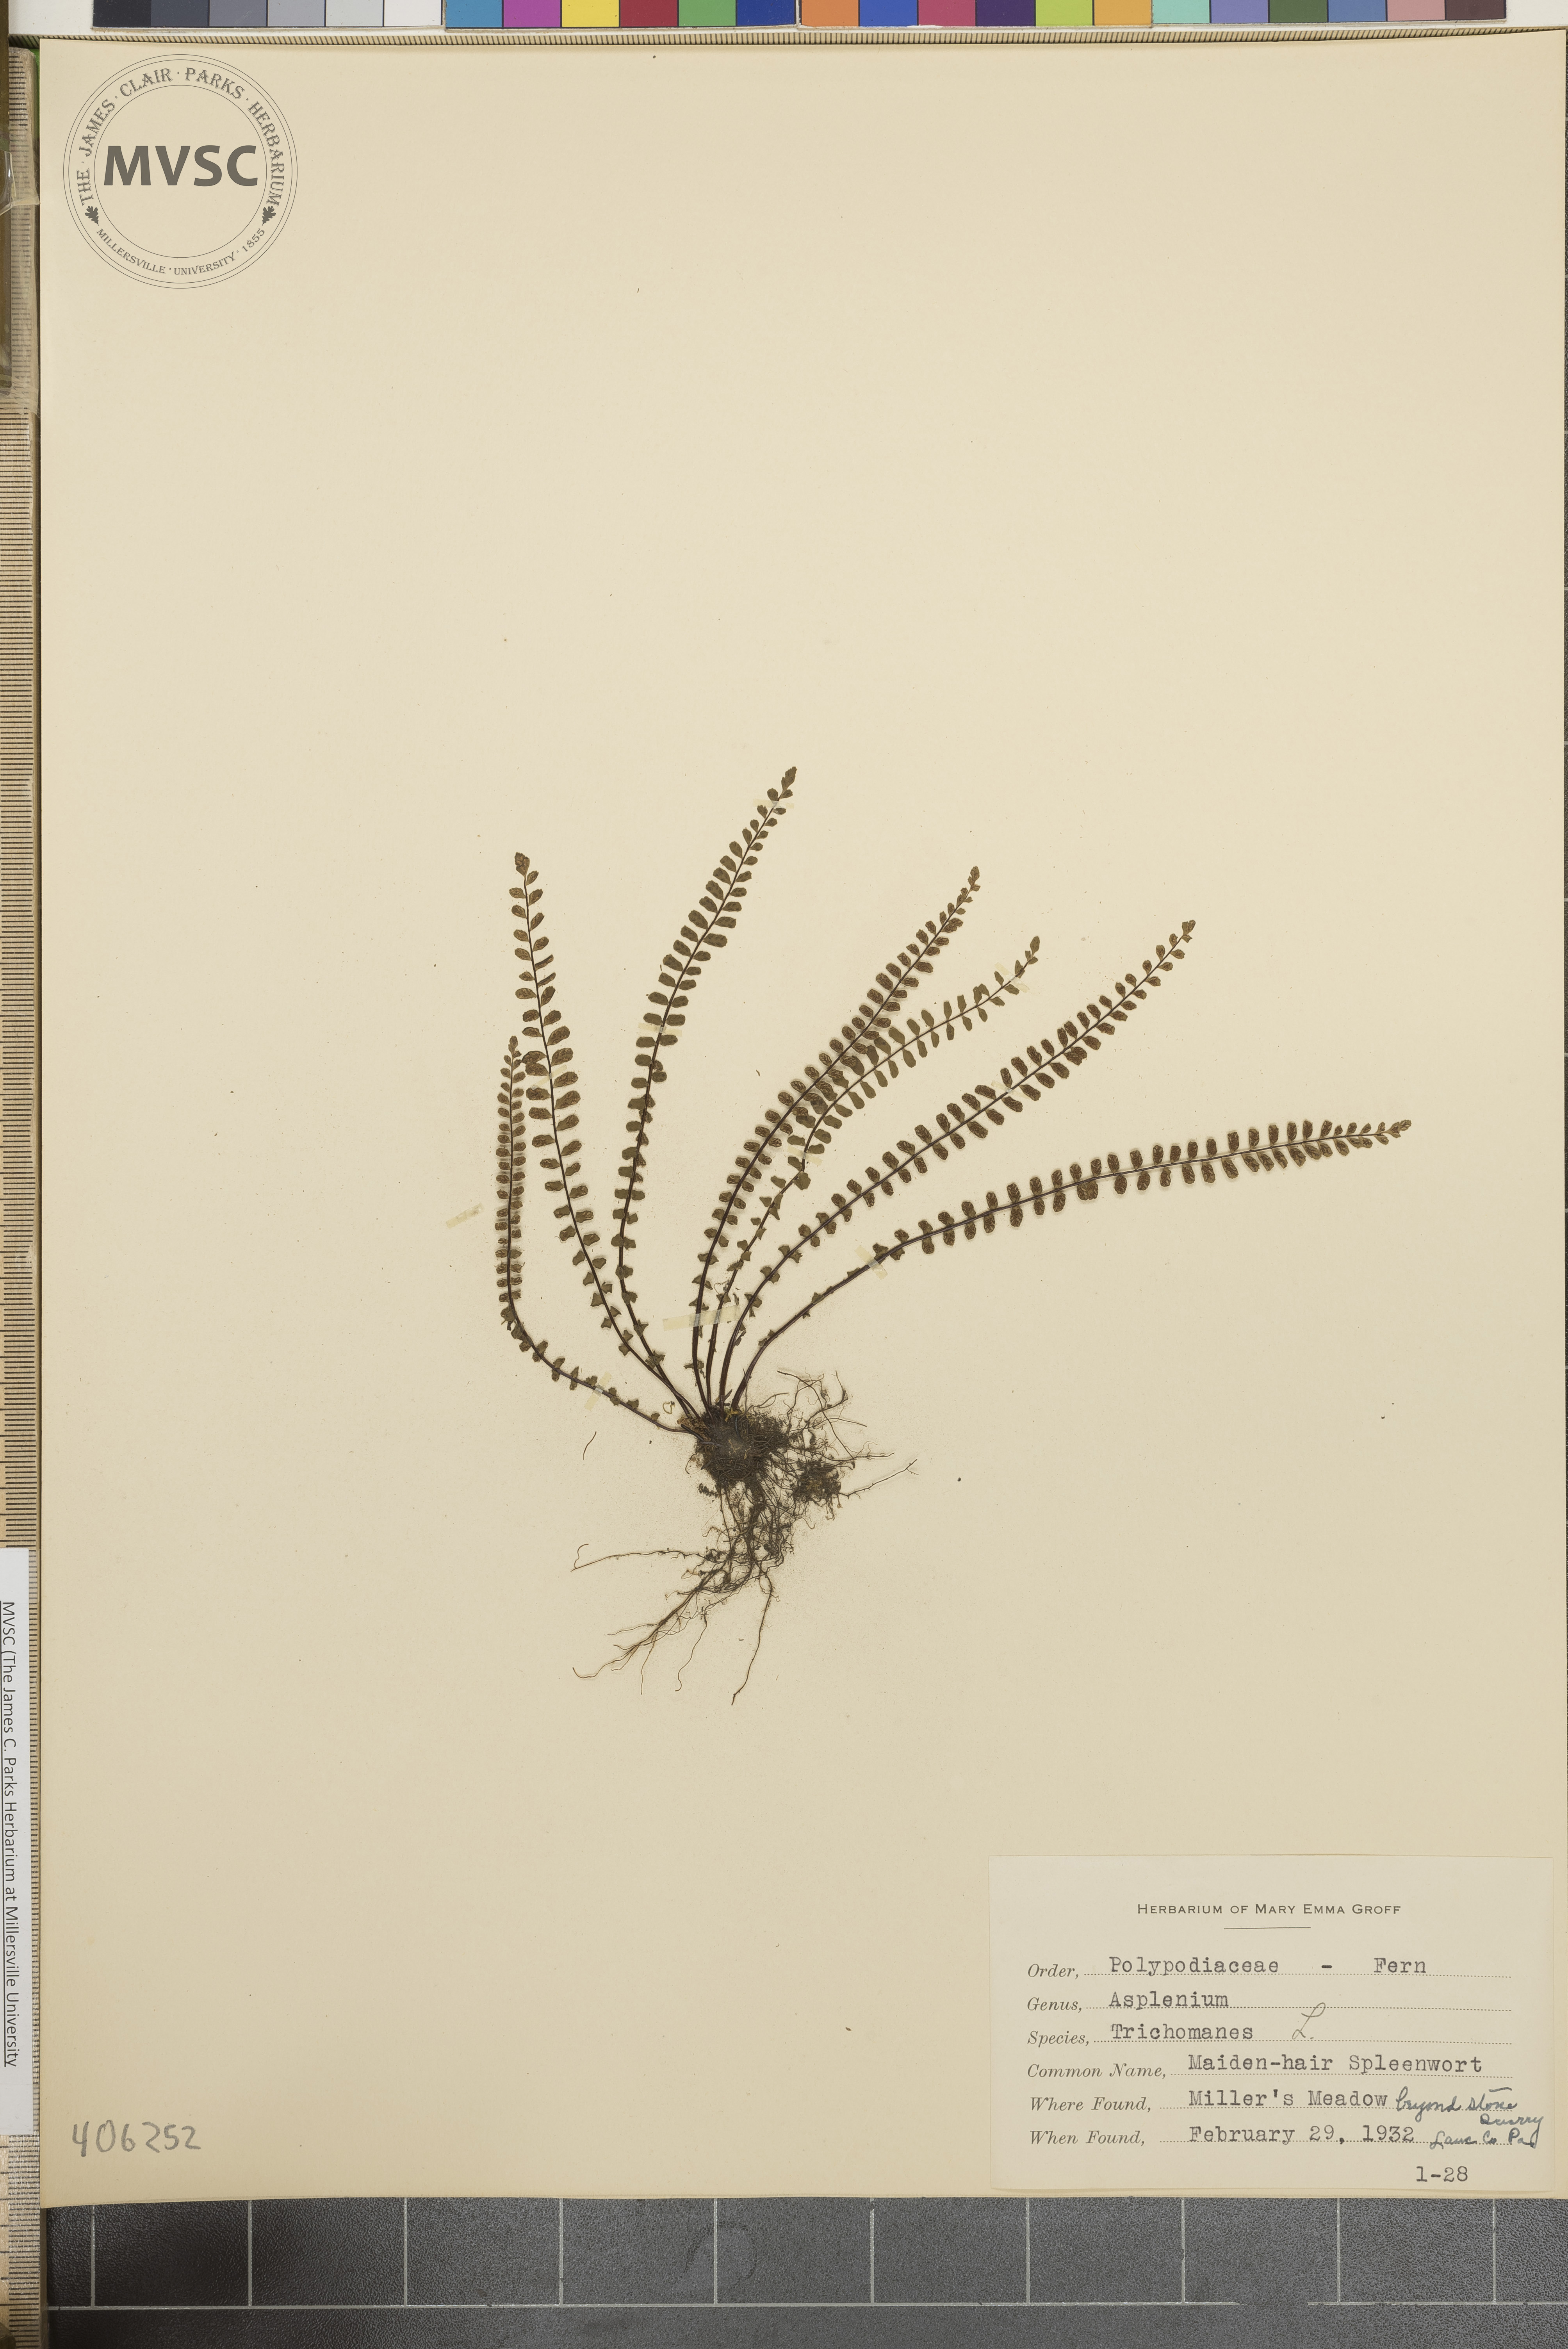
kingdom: Plantae
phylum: Tracheophyta
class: Polypodiopsida
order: Polypodiales
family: Aspleniaceae
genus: Asplenium
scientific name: Asplenium trichomanes
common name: Maidenhair spleenwort
